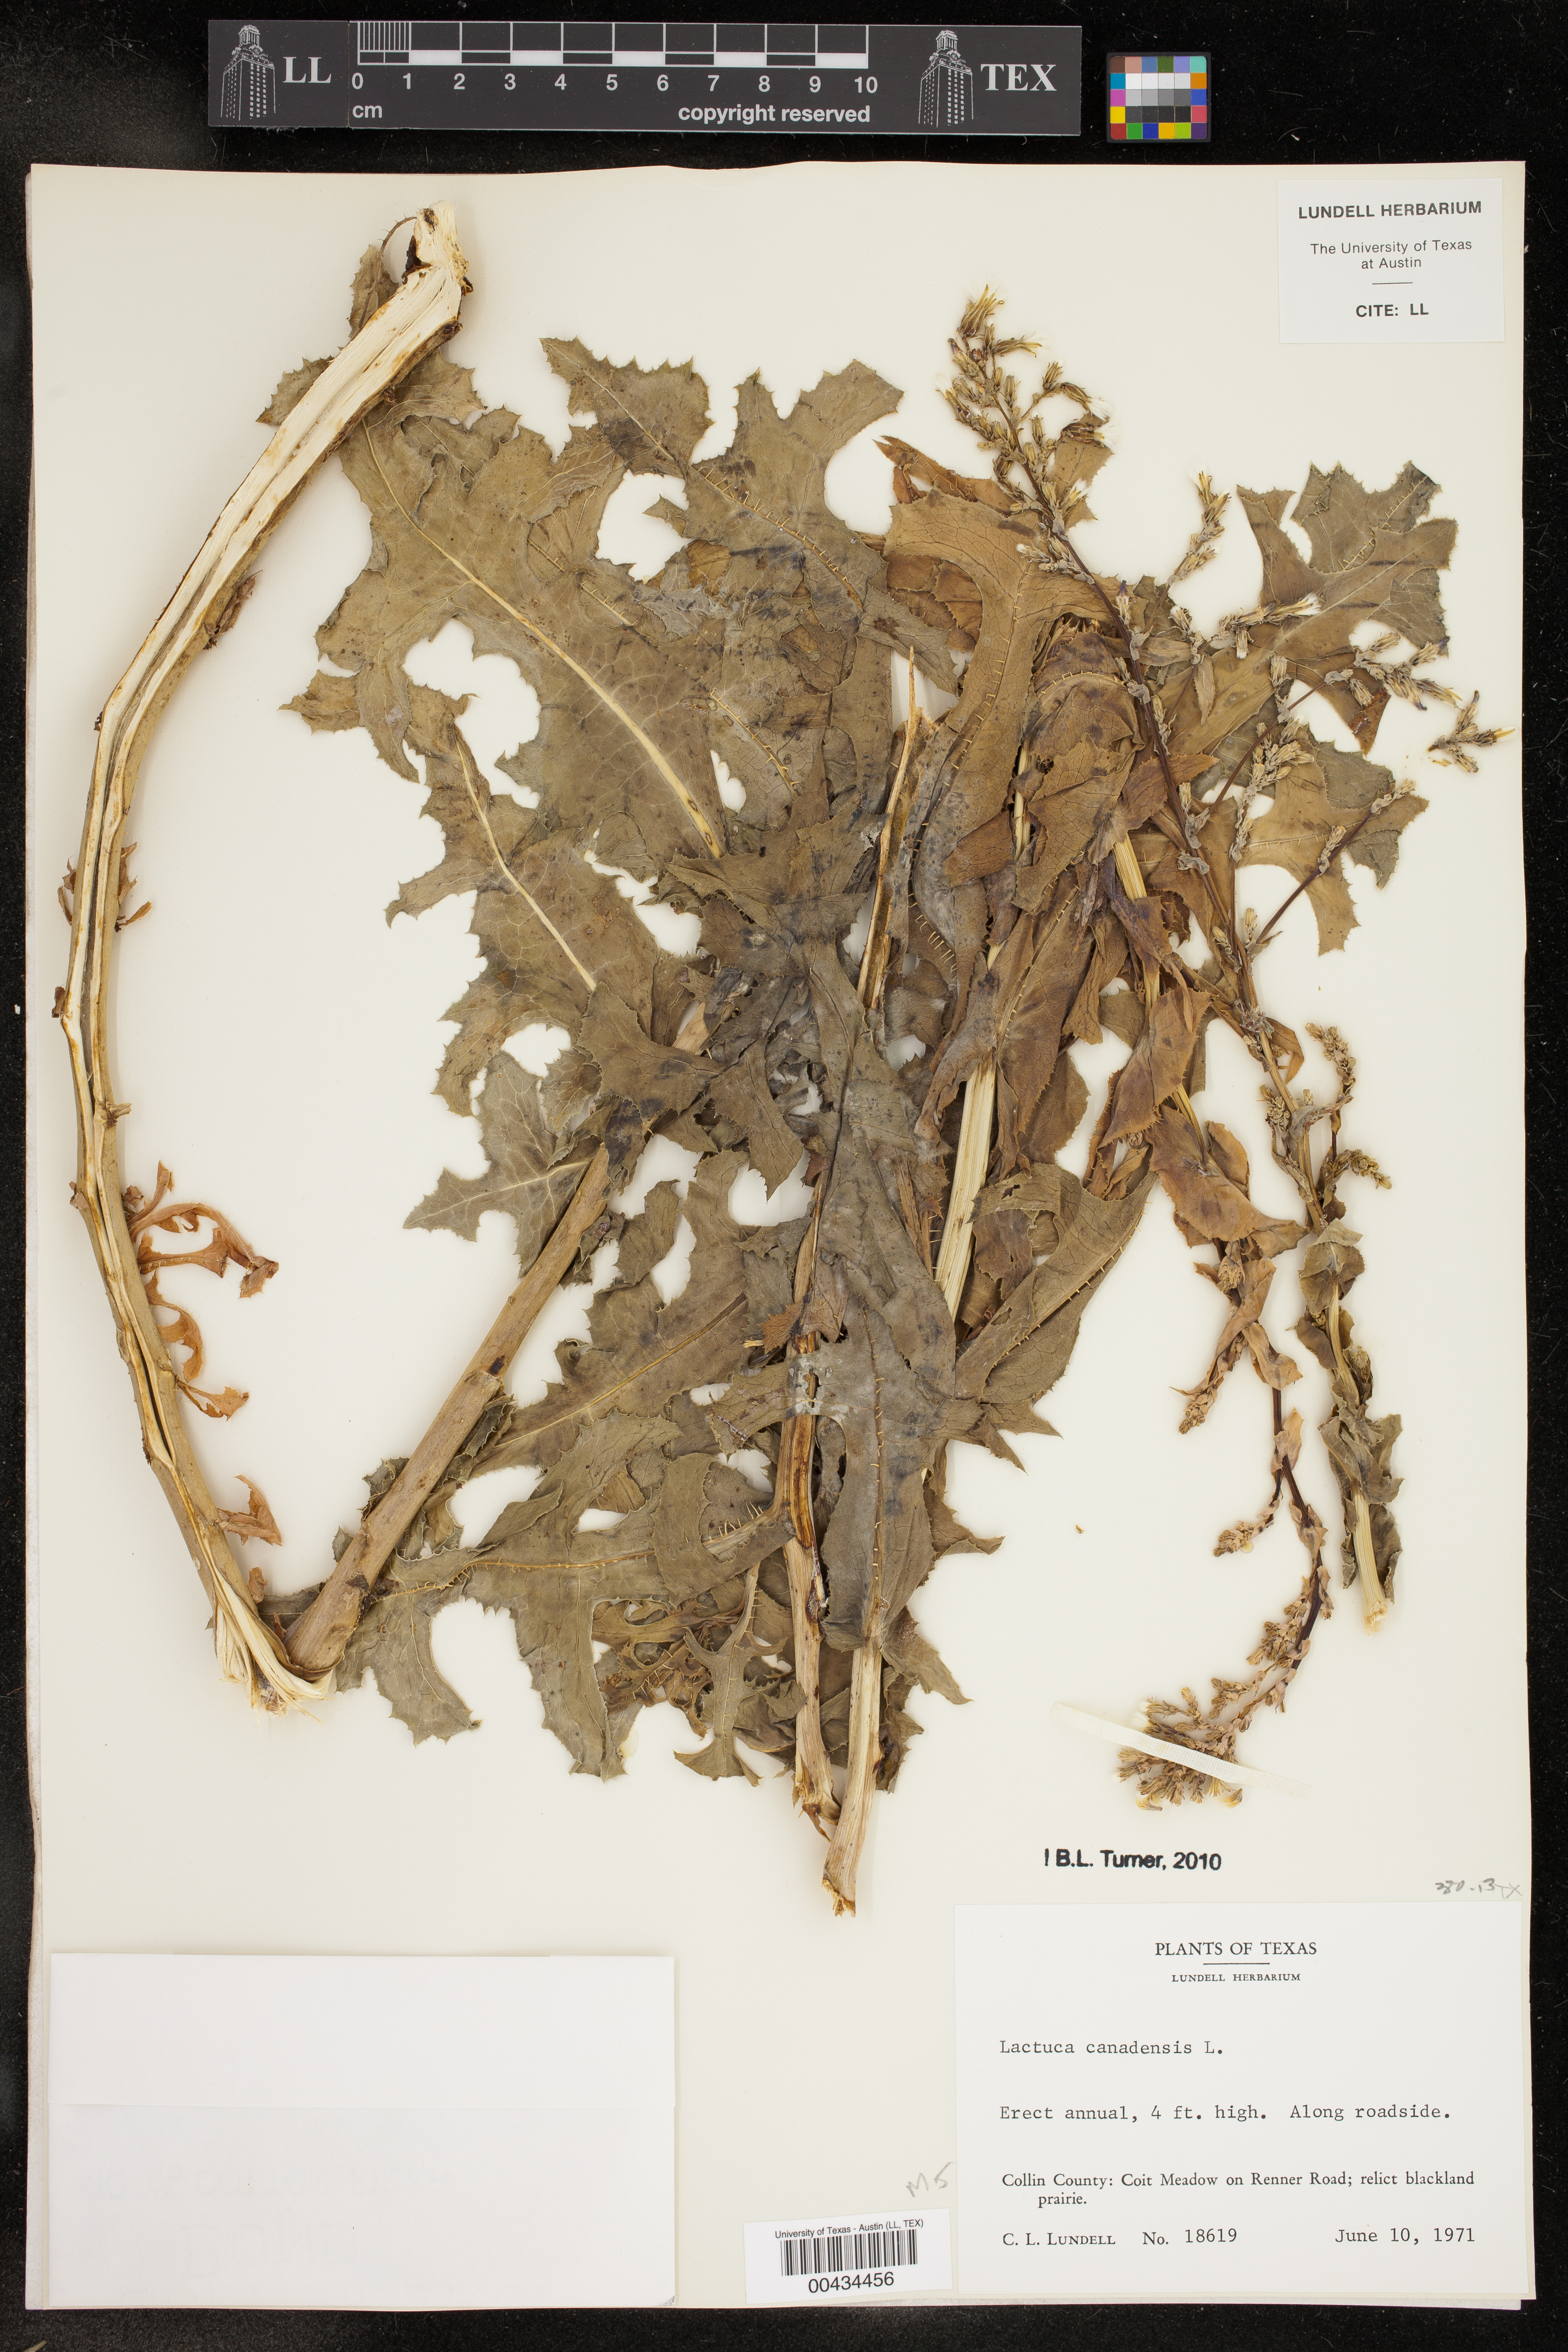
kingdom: Plantae
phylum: Tracheophyta
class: Magnoliopsida
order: Asterales
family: Asteraceae
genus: Lactuca
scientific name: Lactuca canadensis
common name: Canada lettuce
